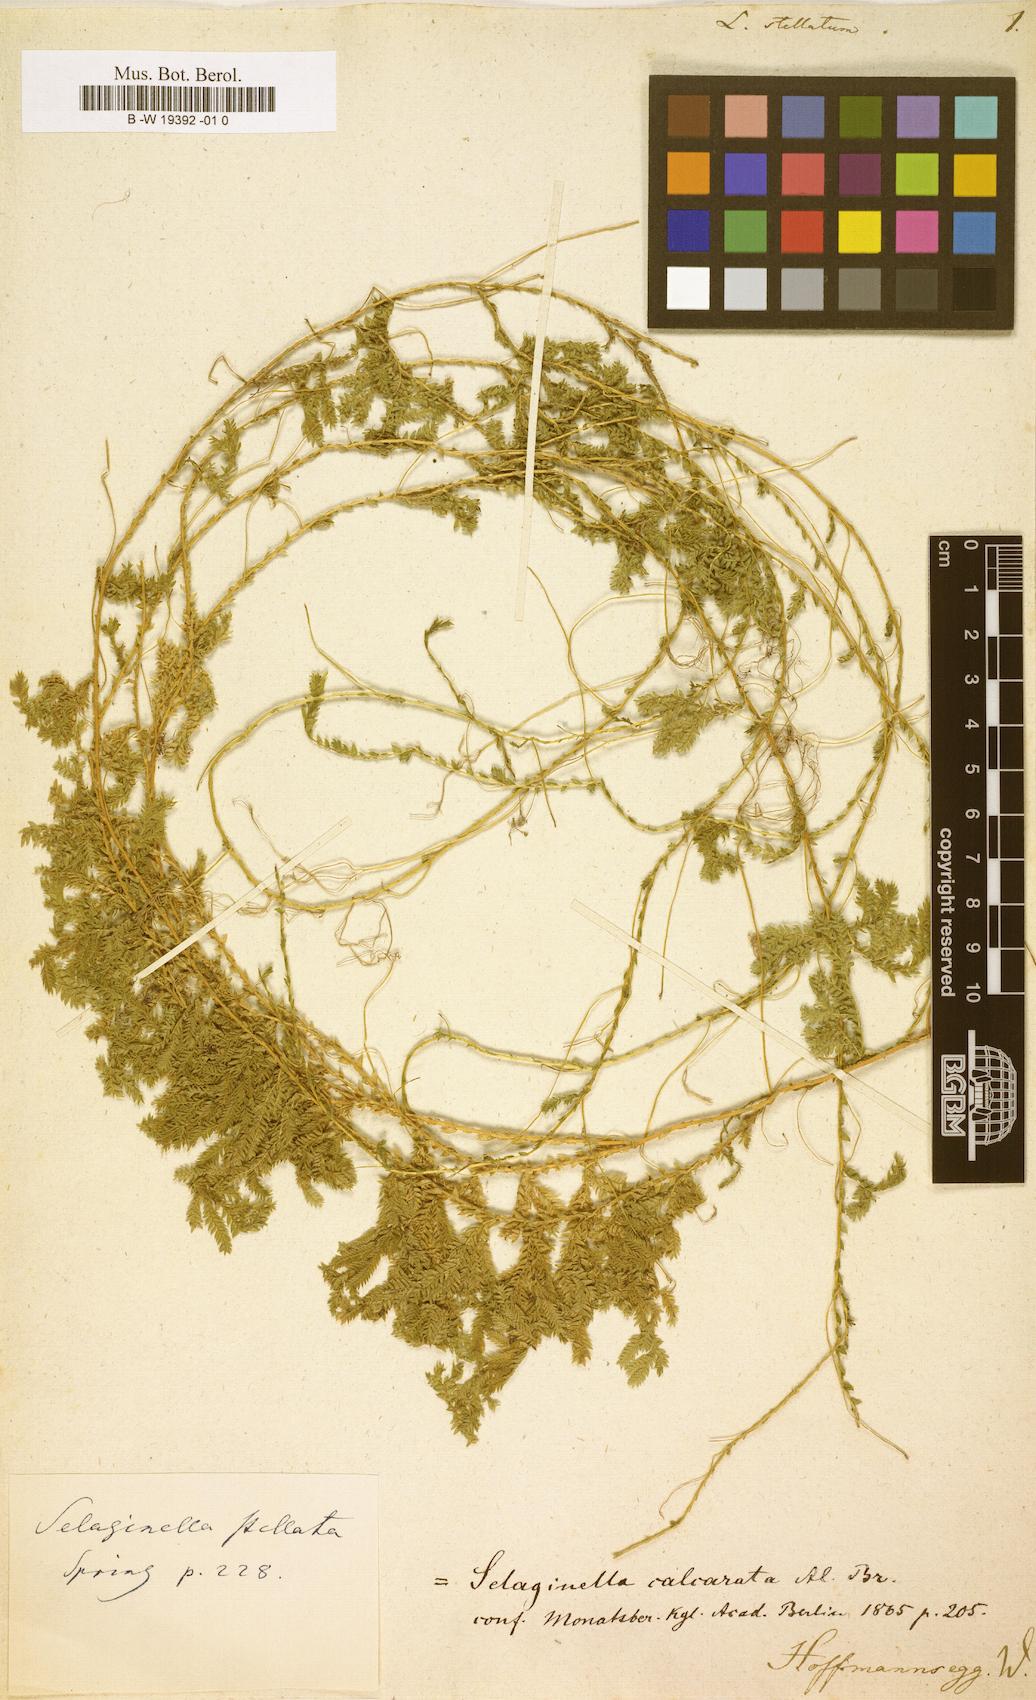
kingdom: Plantae
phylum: Tracheophyta
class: Lycopodiopsida
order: Selaginellales
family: Selaginellaceae
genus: Selaginella
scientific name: Selaginella stellata
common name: Starry spikemoss
